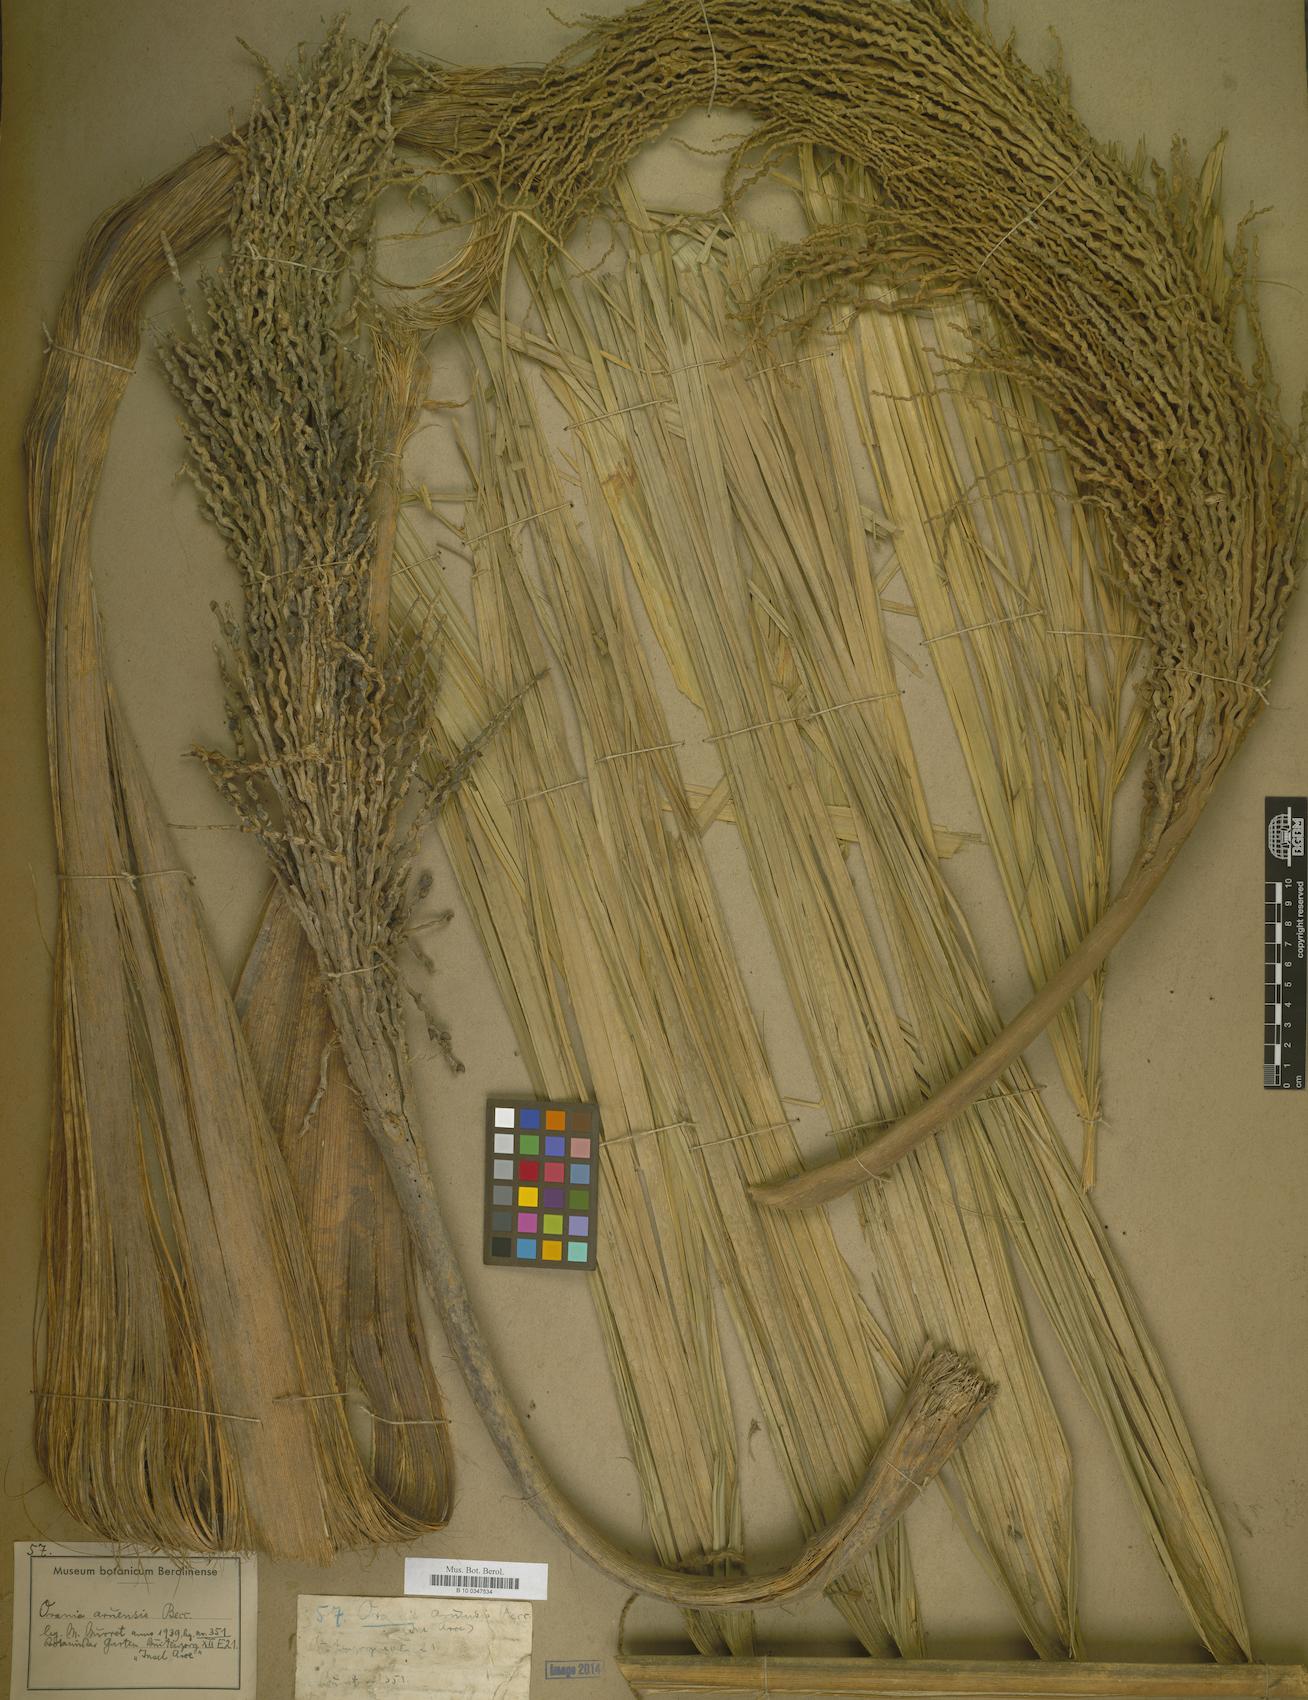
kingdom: Plantae
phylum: Tracheophyta
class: Liliopsida
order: Arecales
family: Arecaceae
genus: Orania
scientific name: Orania regalis
